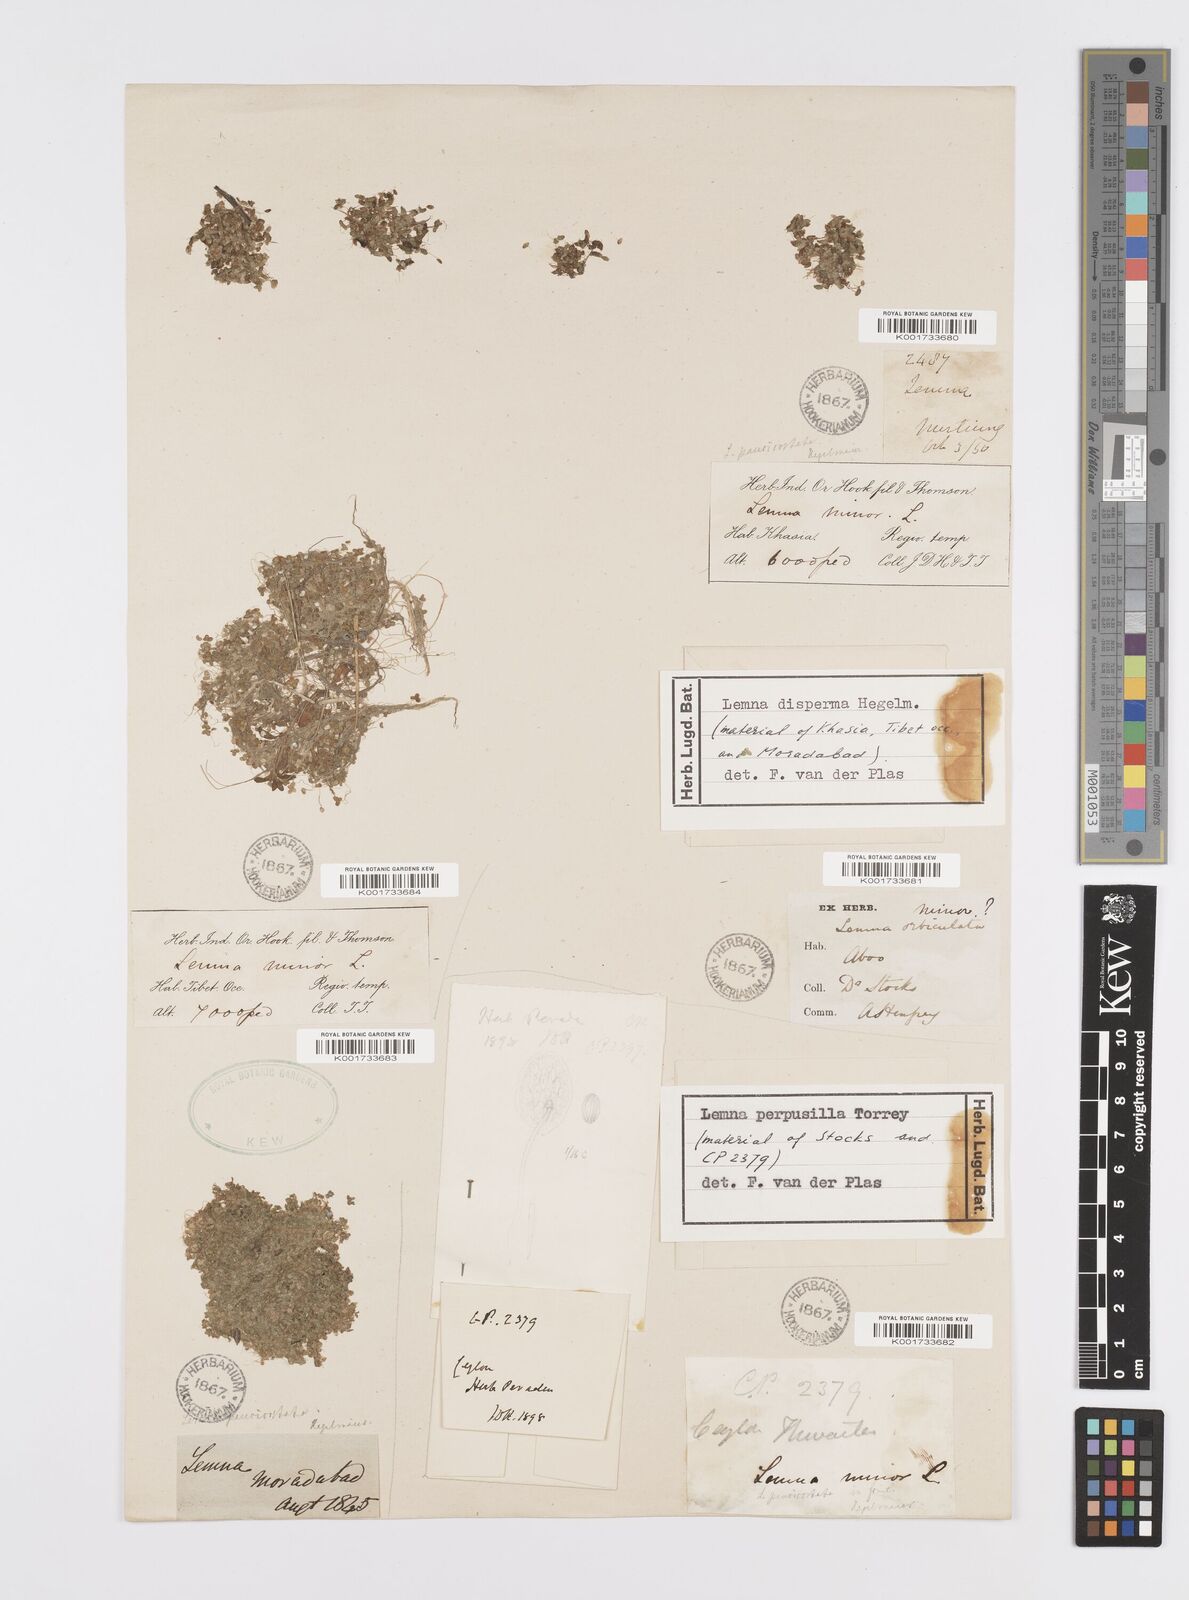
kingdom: Plantae
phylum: Tracheophyta
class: Liliopsida
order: Alismatales
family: Araceae
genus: Lemna
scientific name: Lemna perpusilla
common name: Duckweed
